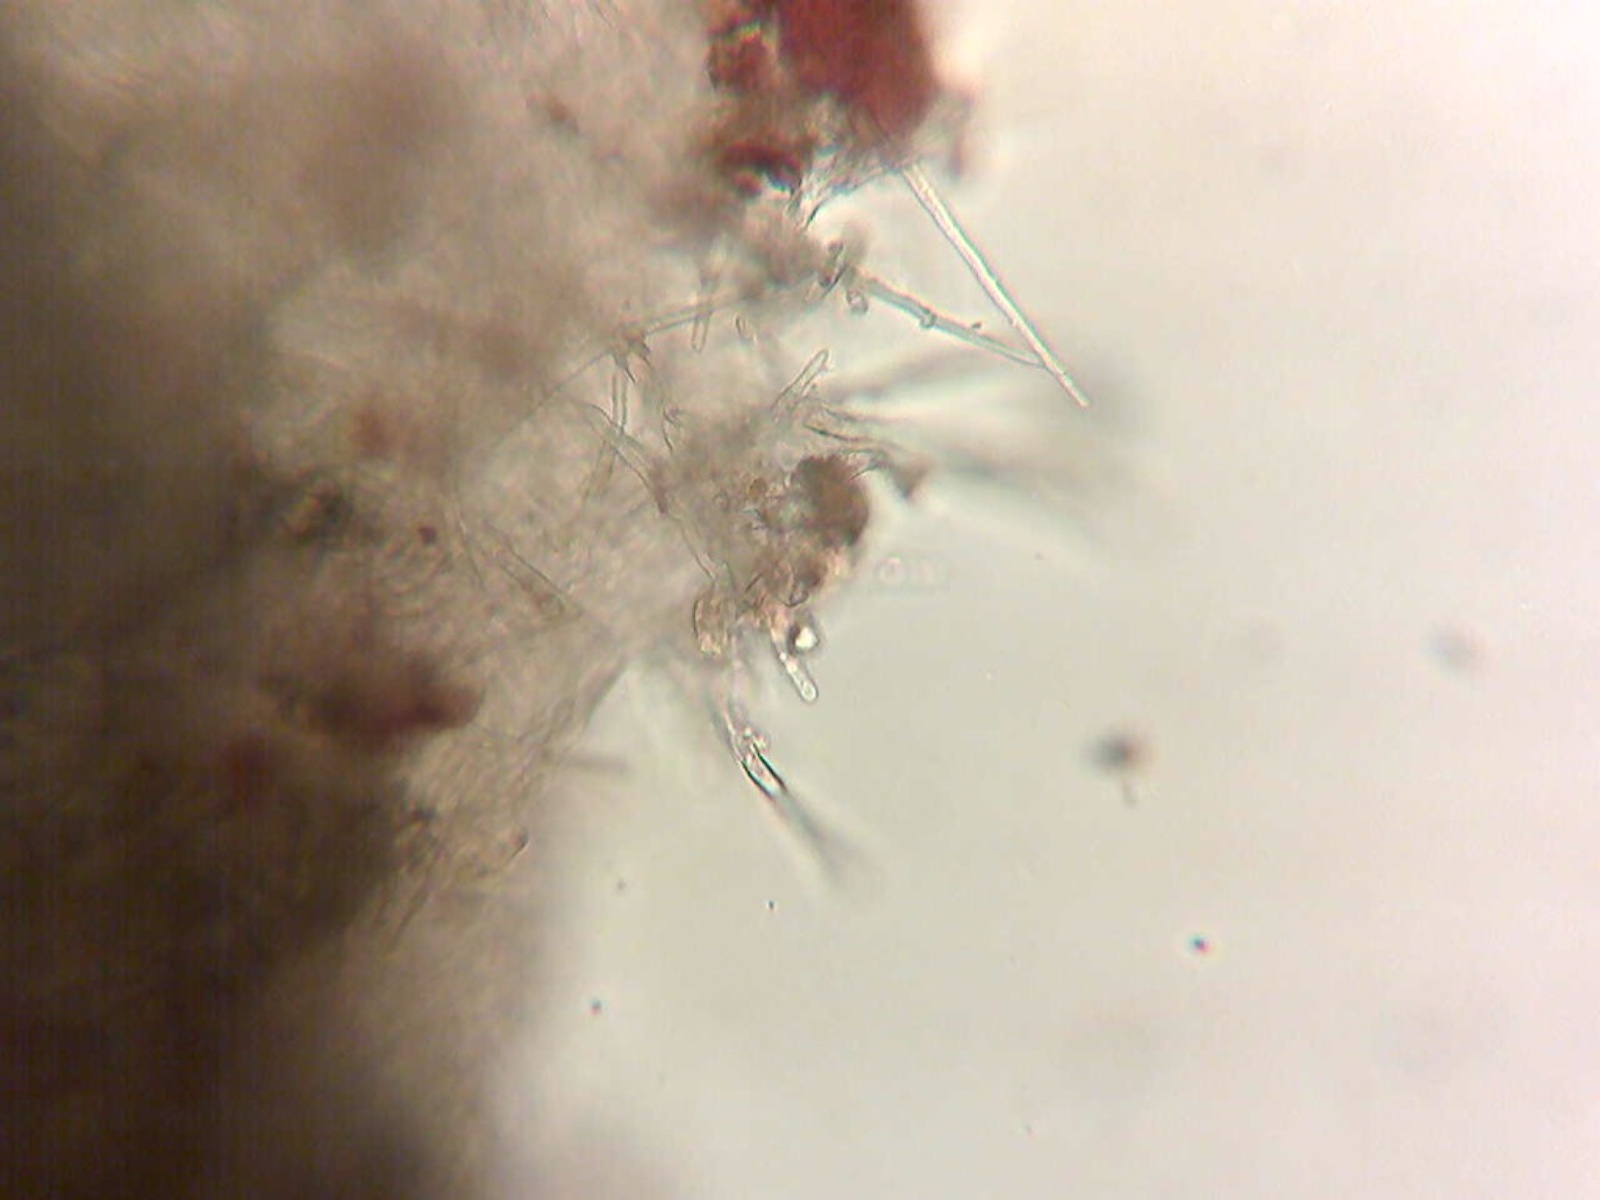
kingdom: Fungi
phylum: Ascomycota
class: Pezizomycetes
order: Pezizales
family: Tuberaceae
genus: Tuber
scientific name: Tuber puberulum
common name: dunet trøffel
